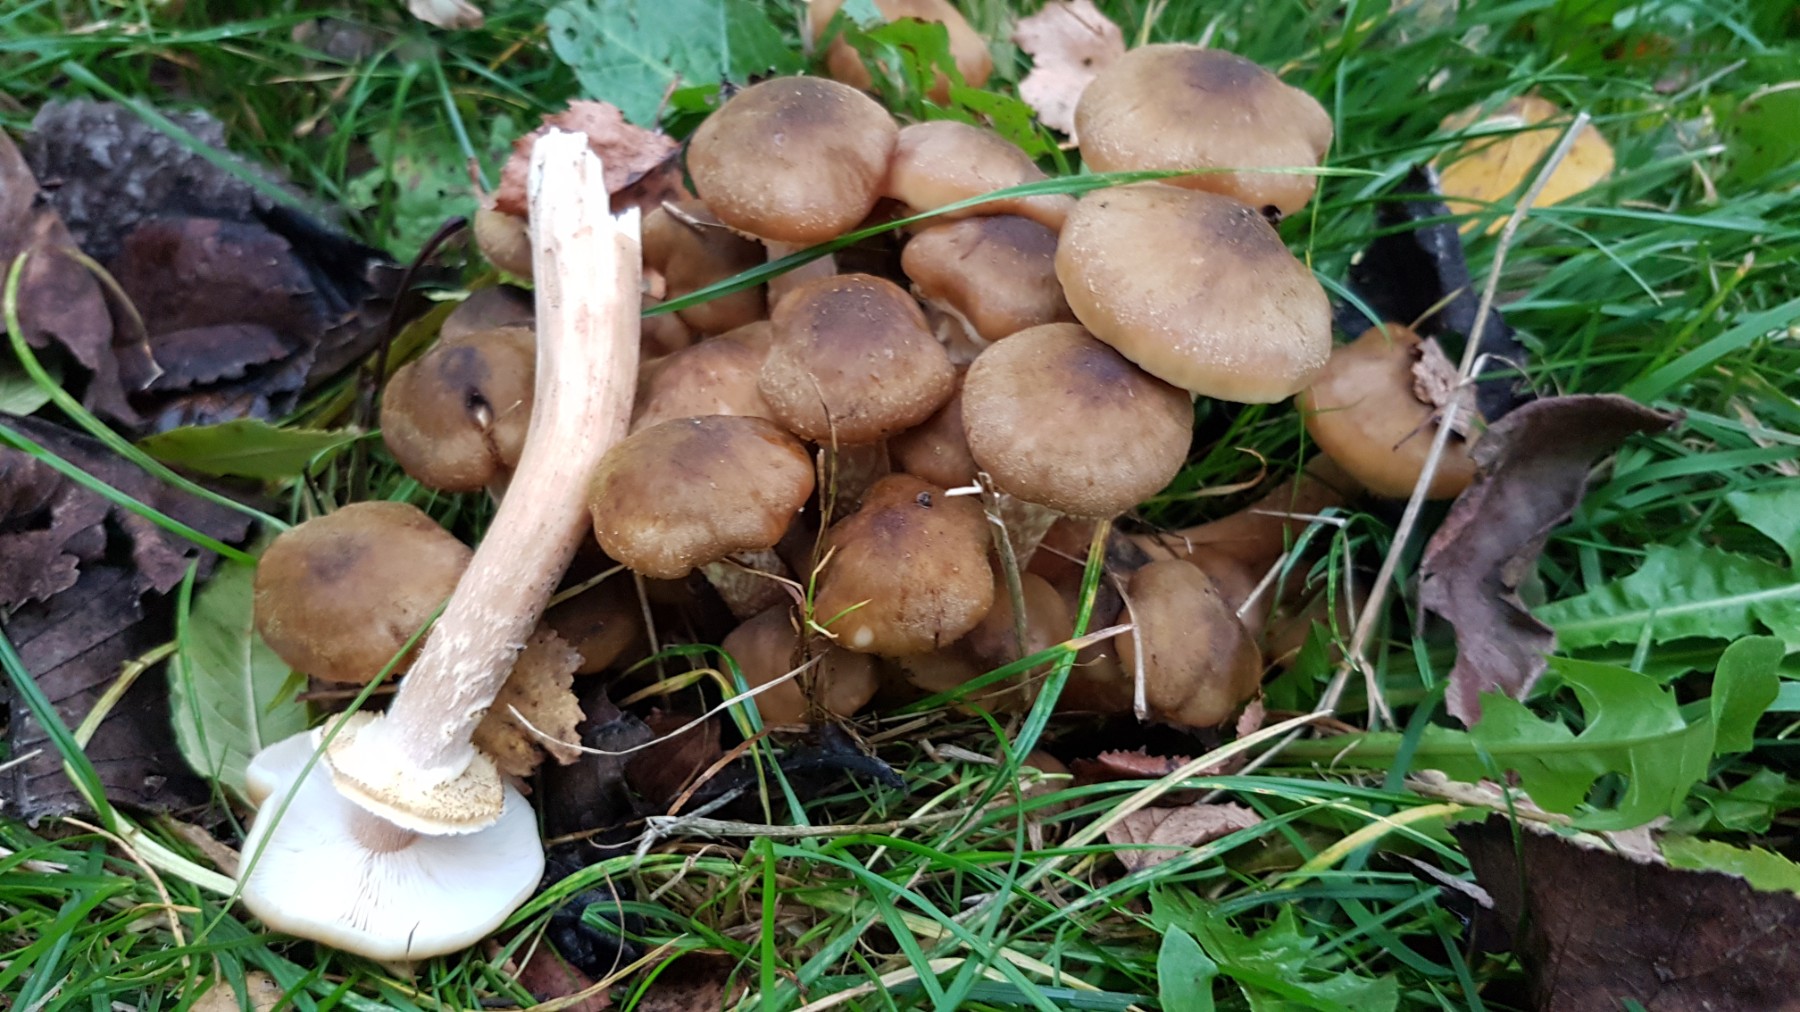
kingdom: Fungi
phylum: Basidiomycota
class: Agaricomycetes
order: Agaricales
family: Physalacriaceae
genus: Armillaria
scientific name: Armillaria mellea
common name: ægte honningsvamp
